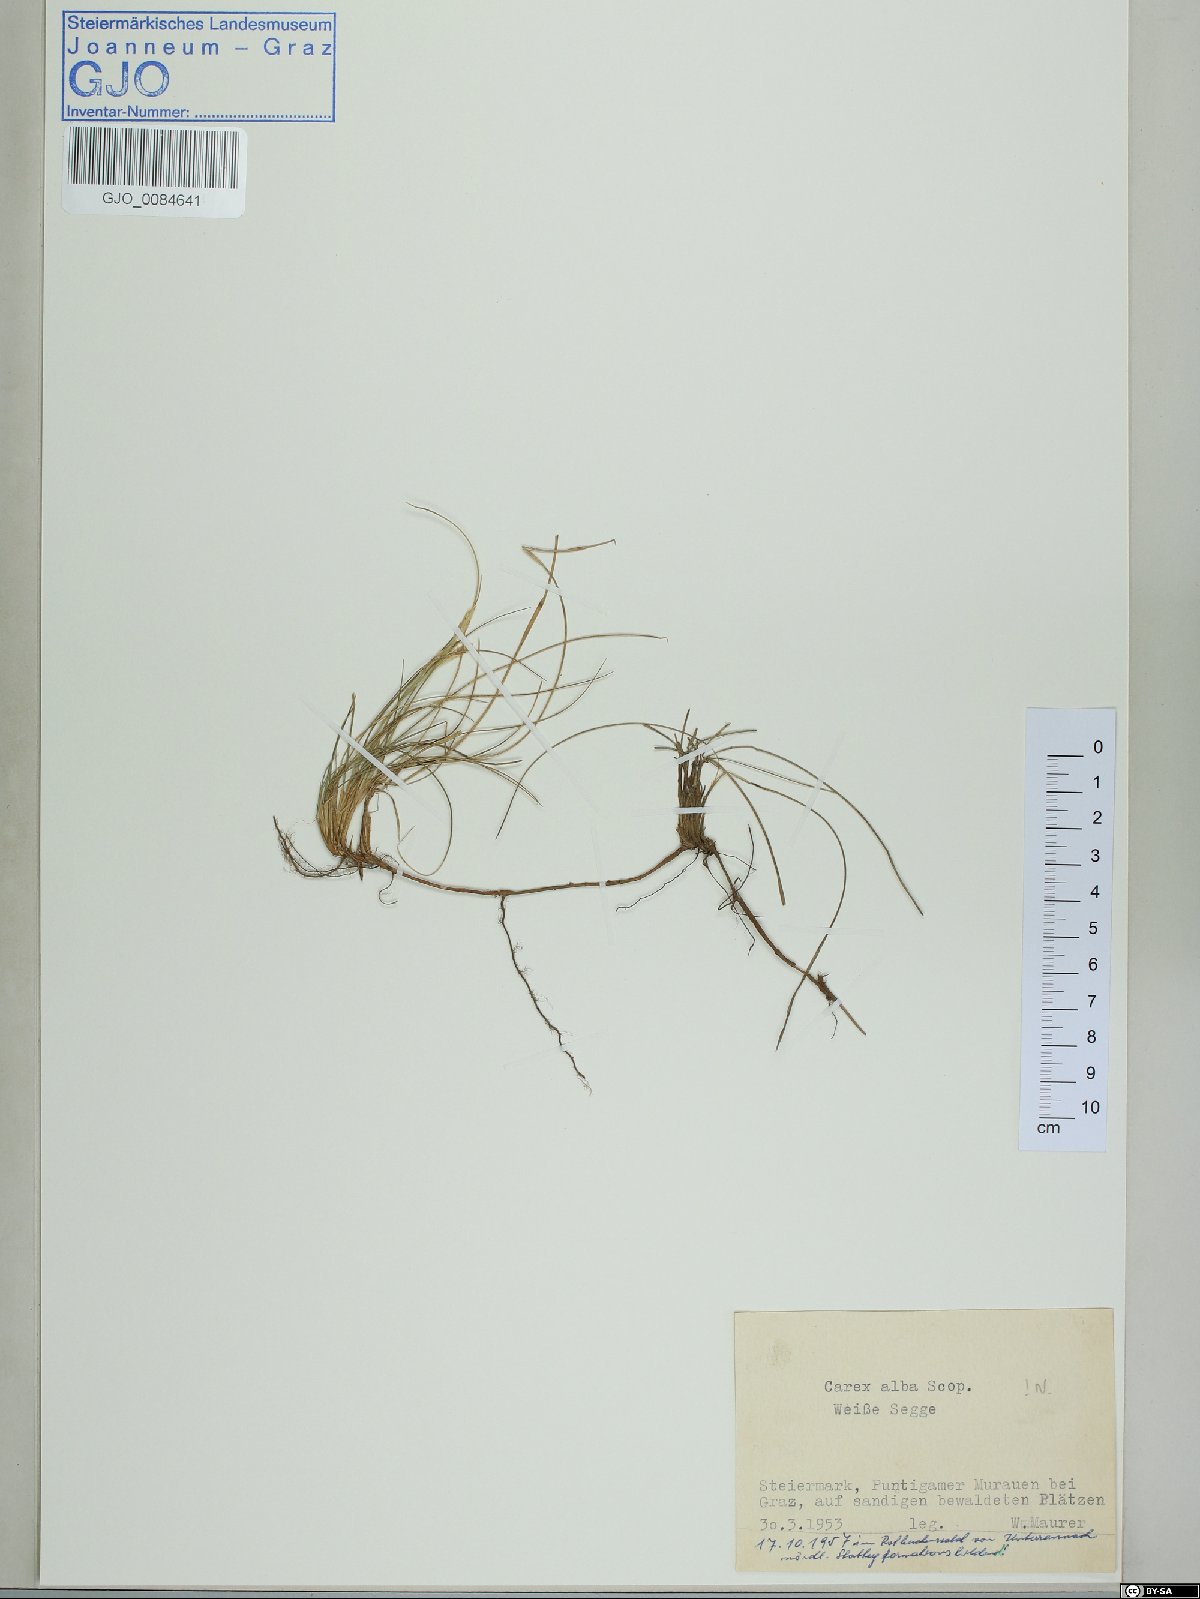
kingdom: Plantae
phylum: Tracheophyta
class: Liliopsida
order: Poales
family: Cyperaceae
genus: Carex
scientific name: Carex alba
